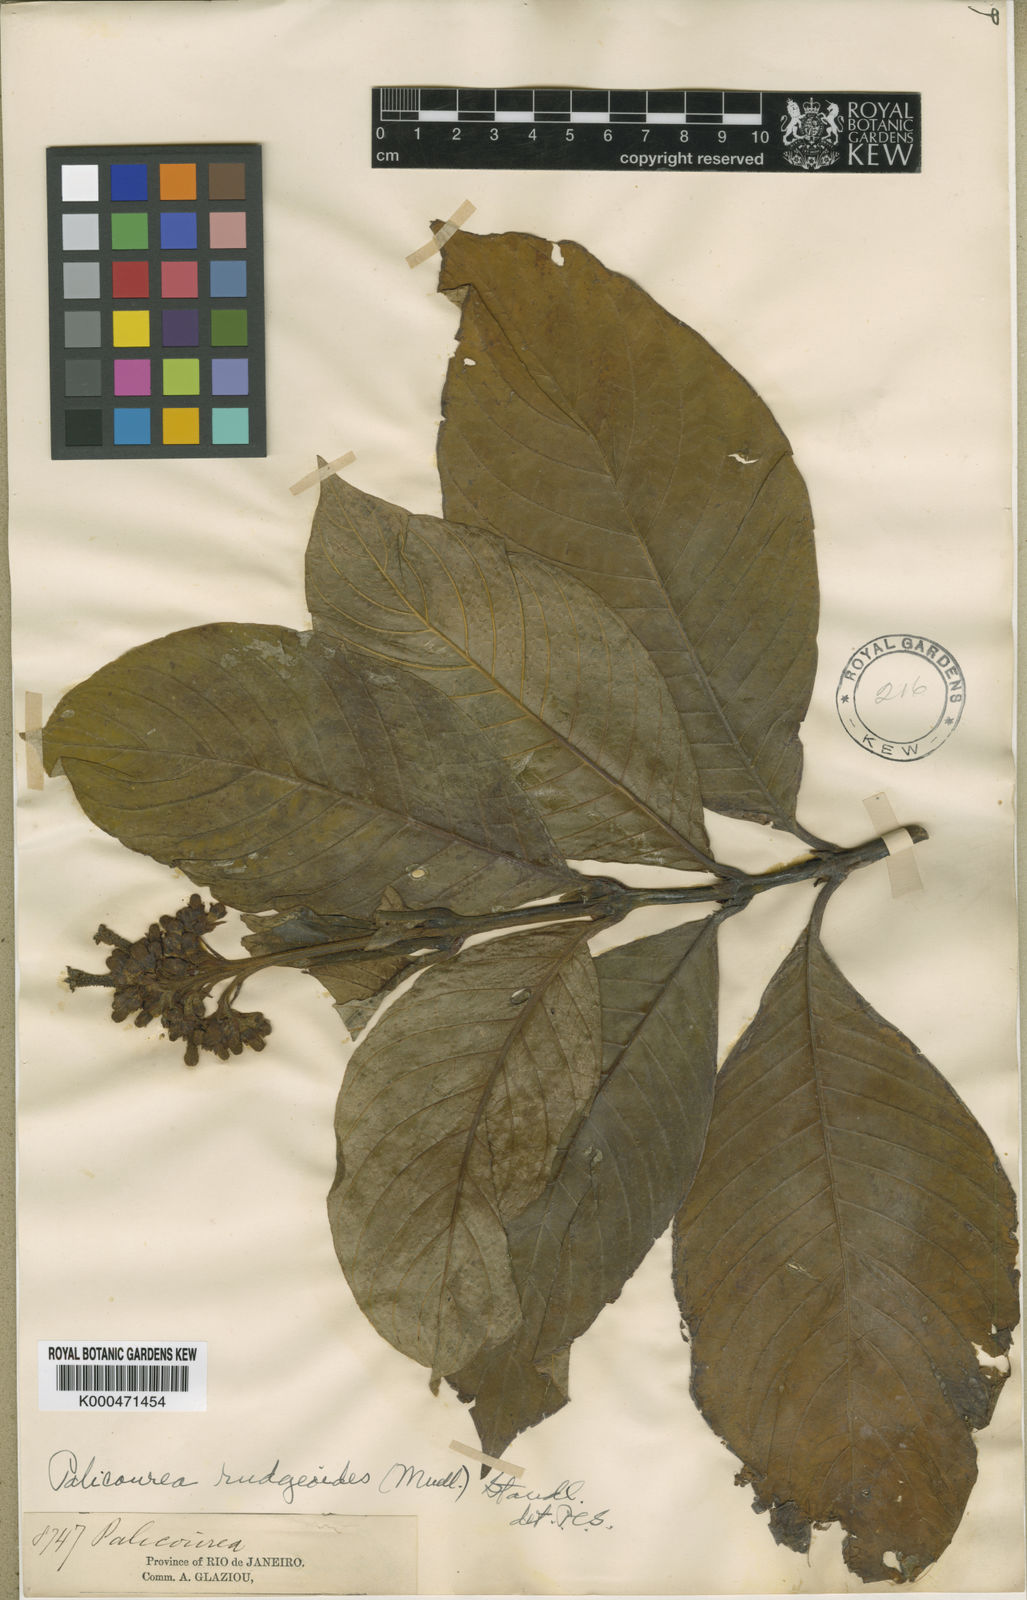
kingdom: Plantae
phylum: Tracheophyta
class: Magnoliopsida
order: Gentianales
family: Rubiaceae
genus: Palicourea
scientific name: Palicourea
